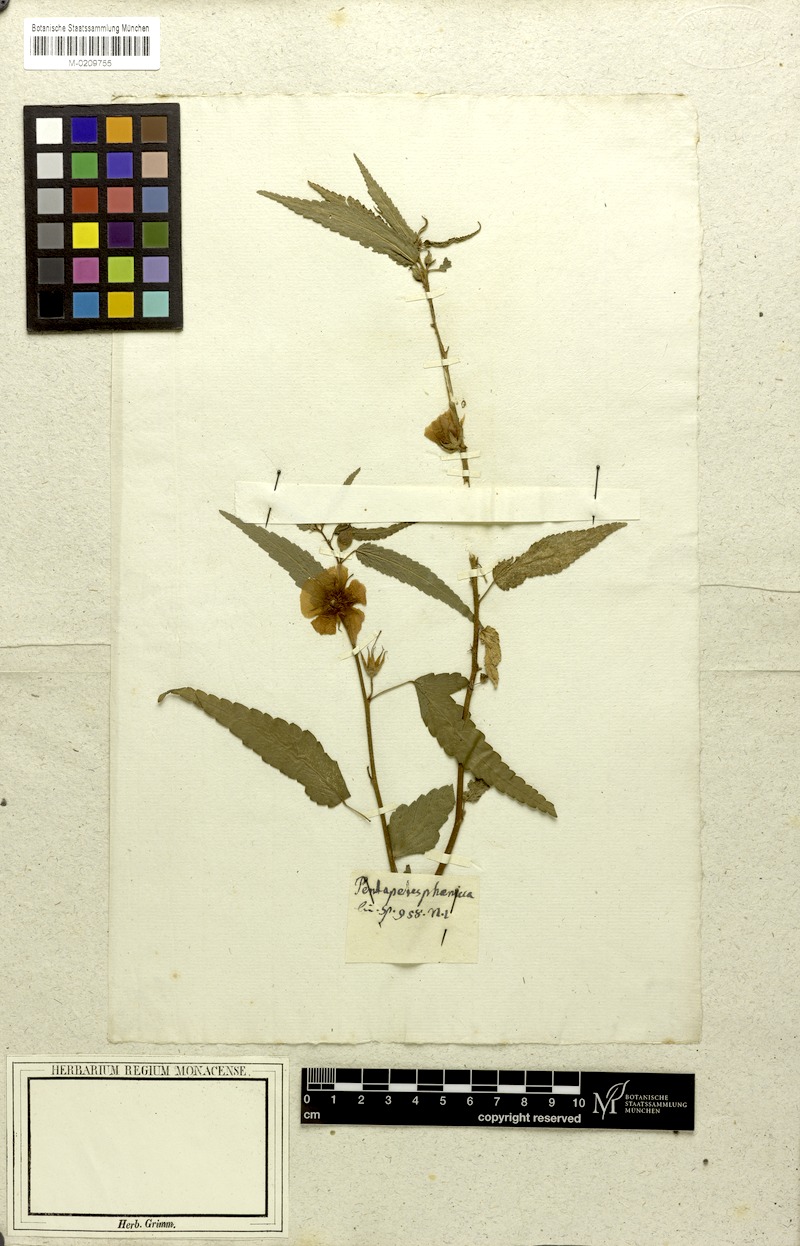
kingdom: Plantae
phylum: Tracheophyta
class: Magnoliopsida
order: Malvales
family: Malvaceae
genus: Pentapetes
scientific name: Pentapetes phoenicea
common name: Copper-cups
